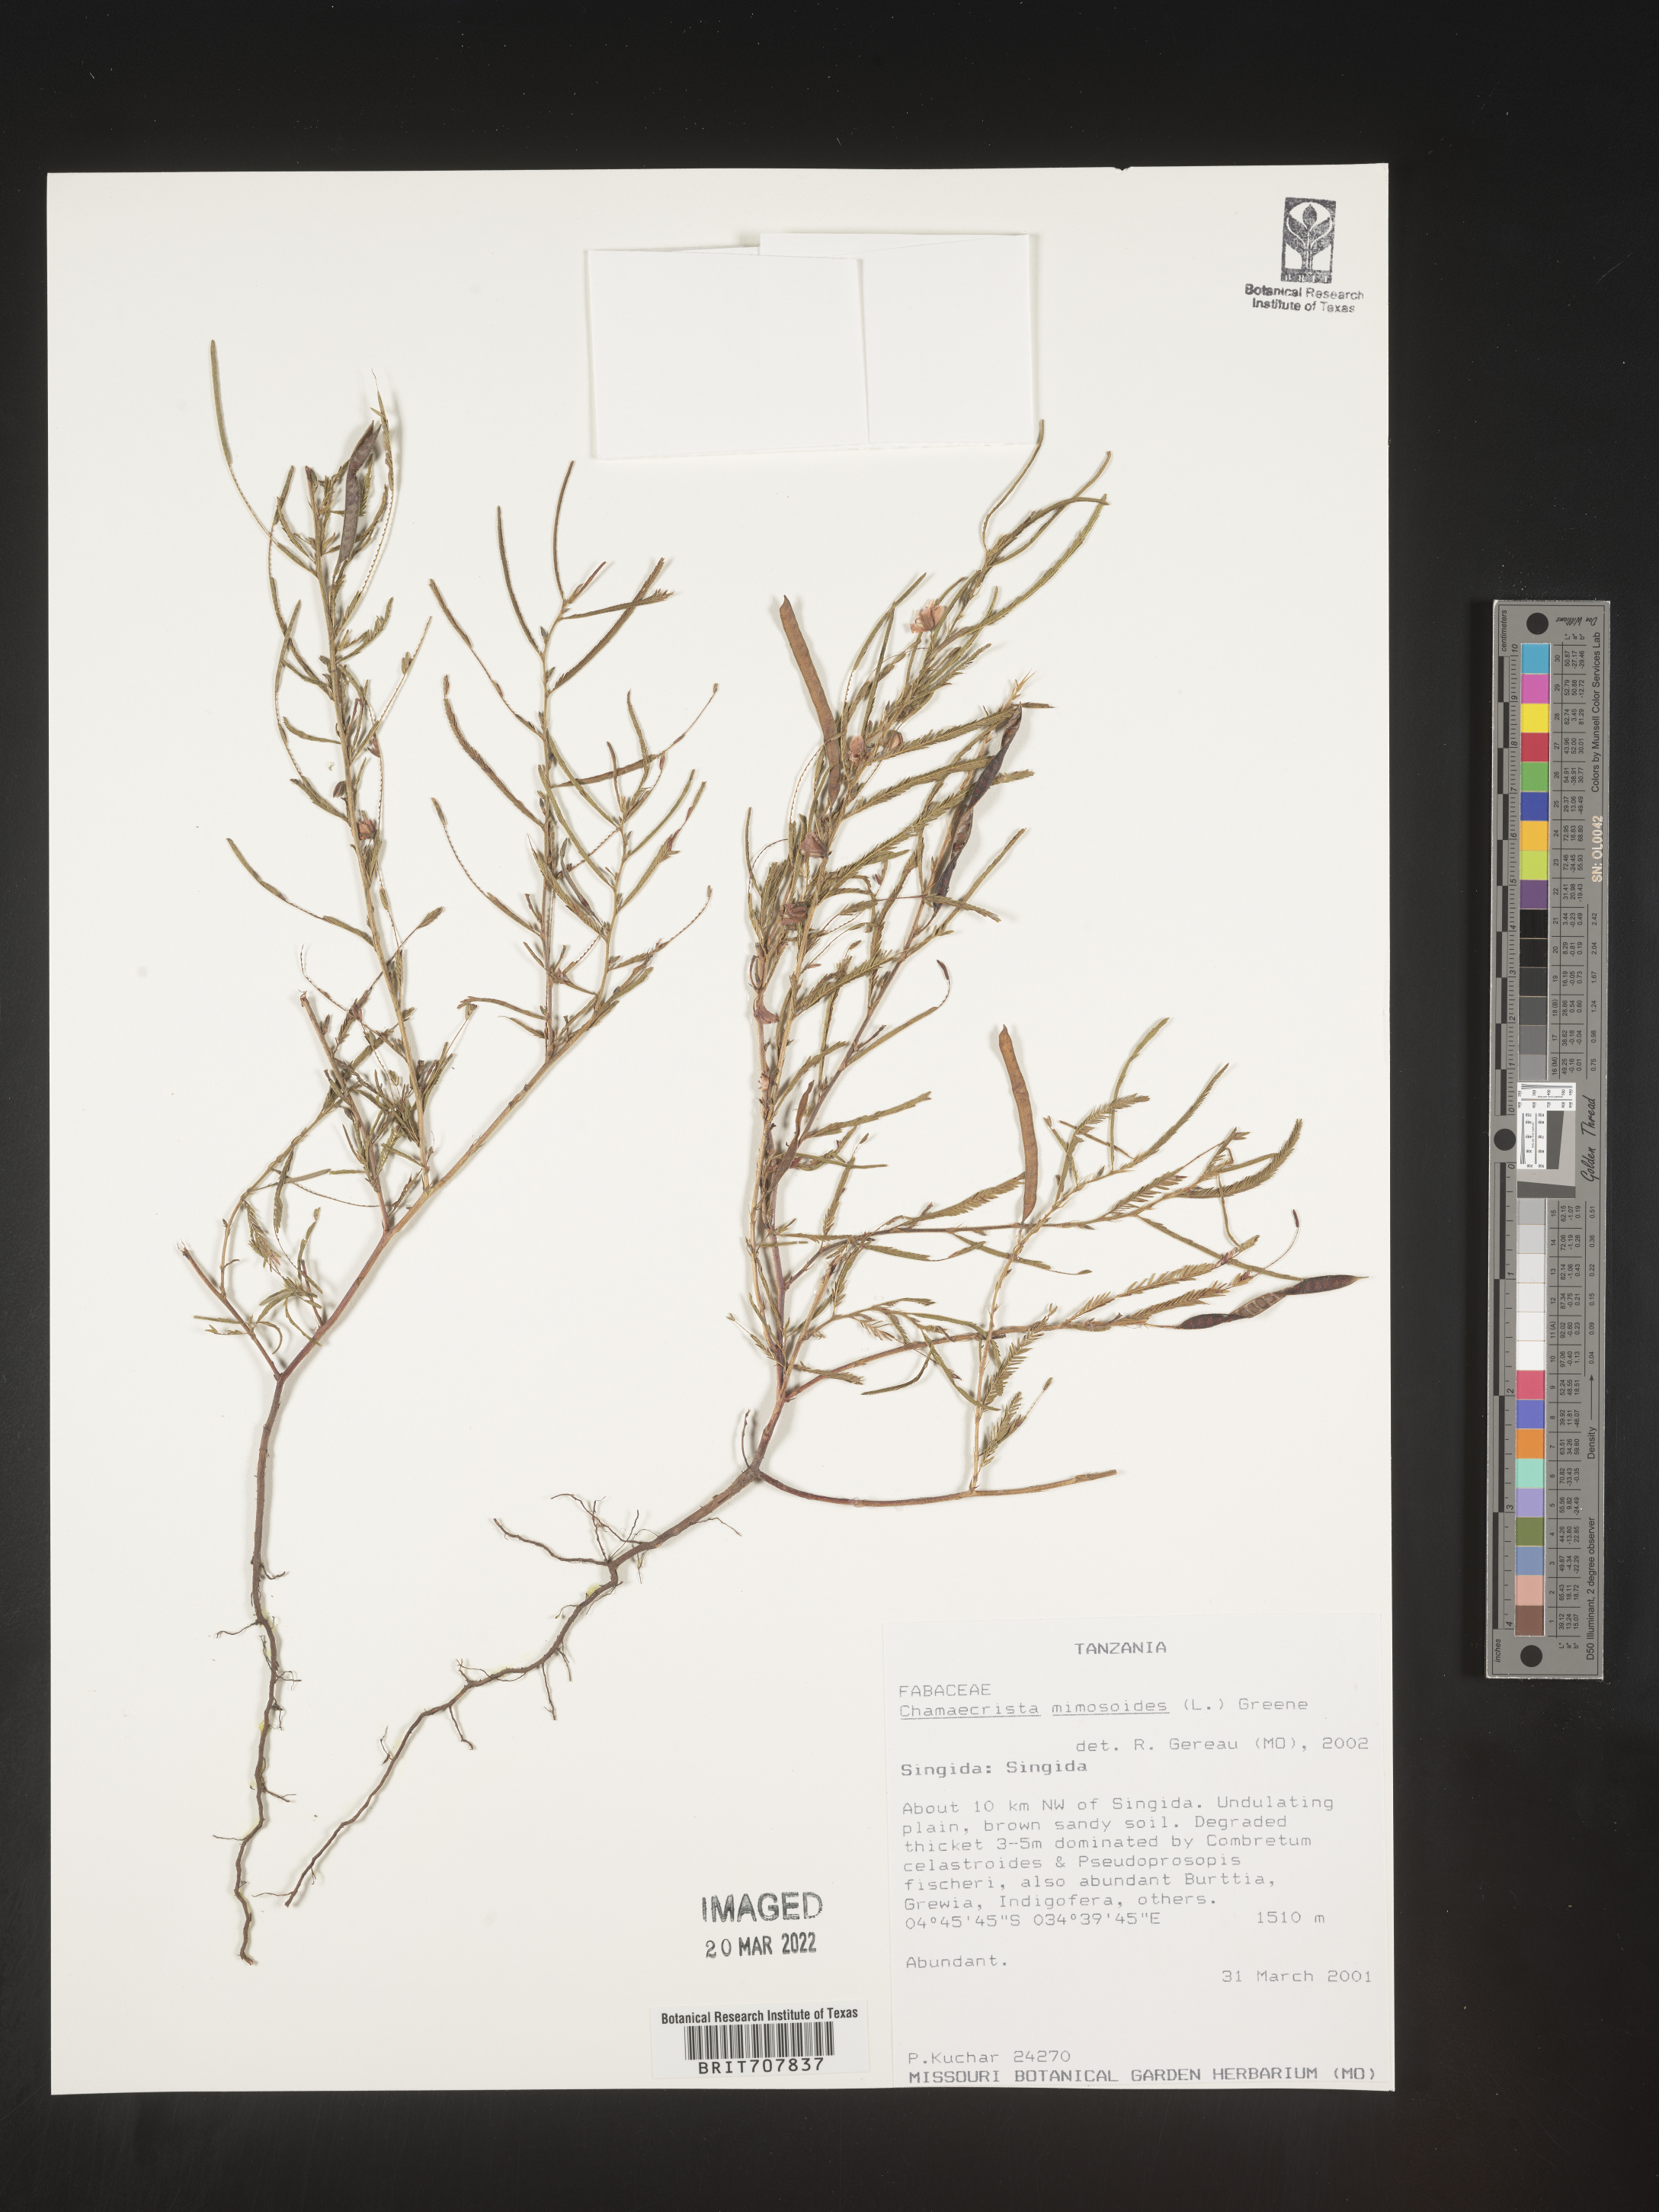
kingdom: Plantae
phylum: Tracheophyta
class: Magnoliopsida
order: Fabales
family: Fabaceae
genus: Chamaecrista
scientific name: Chamaecrista
